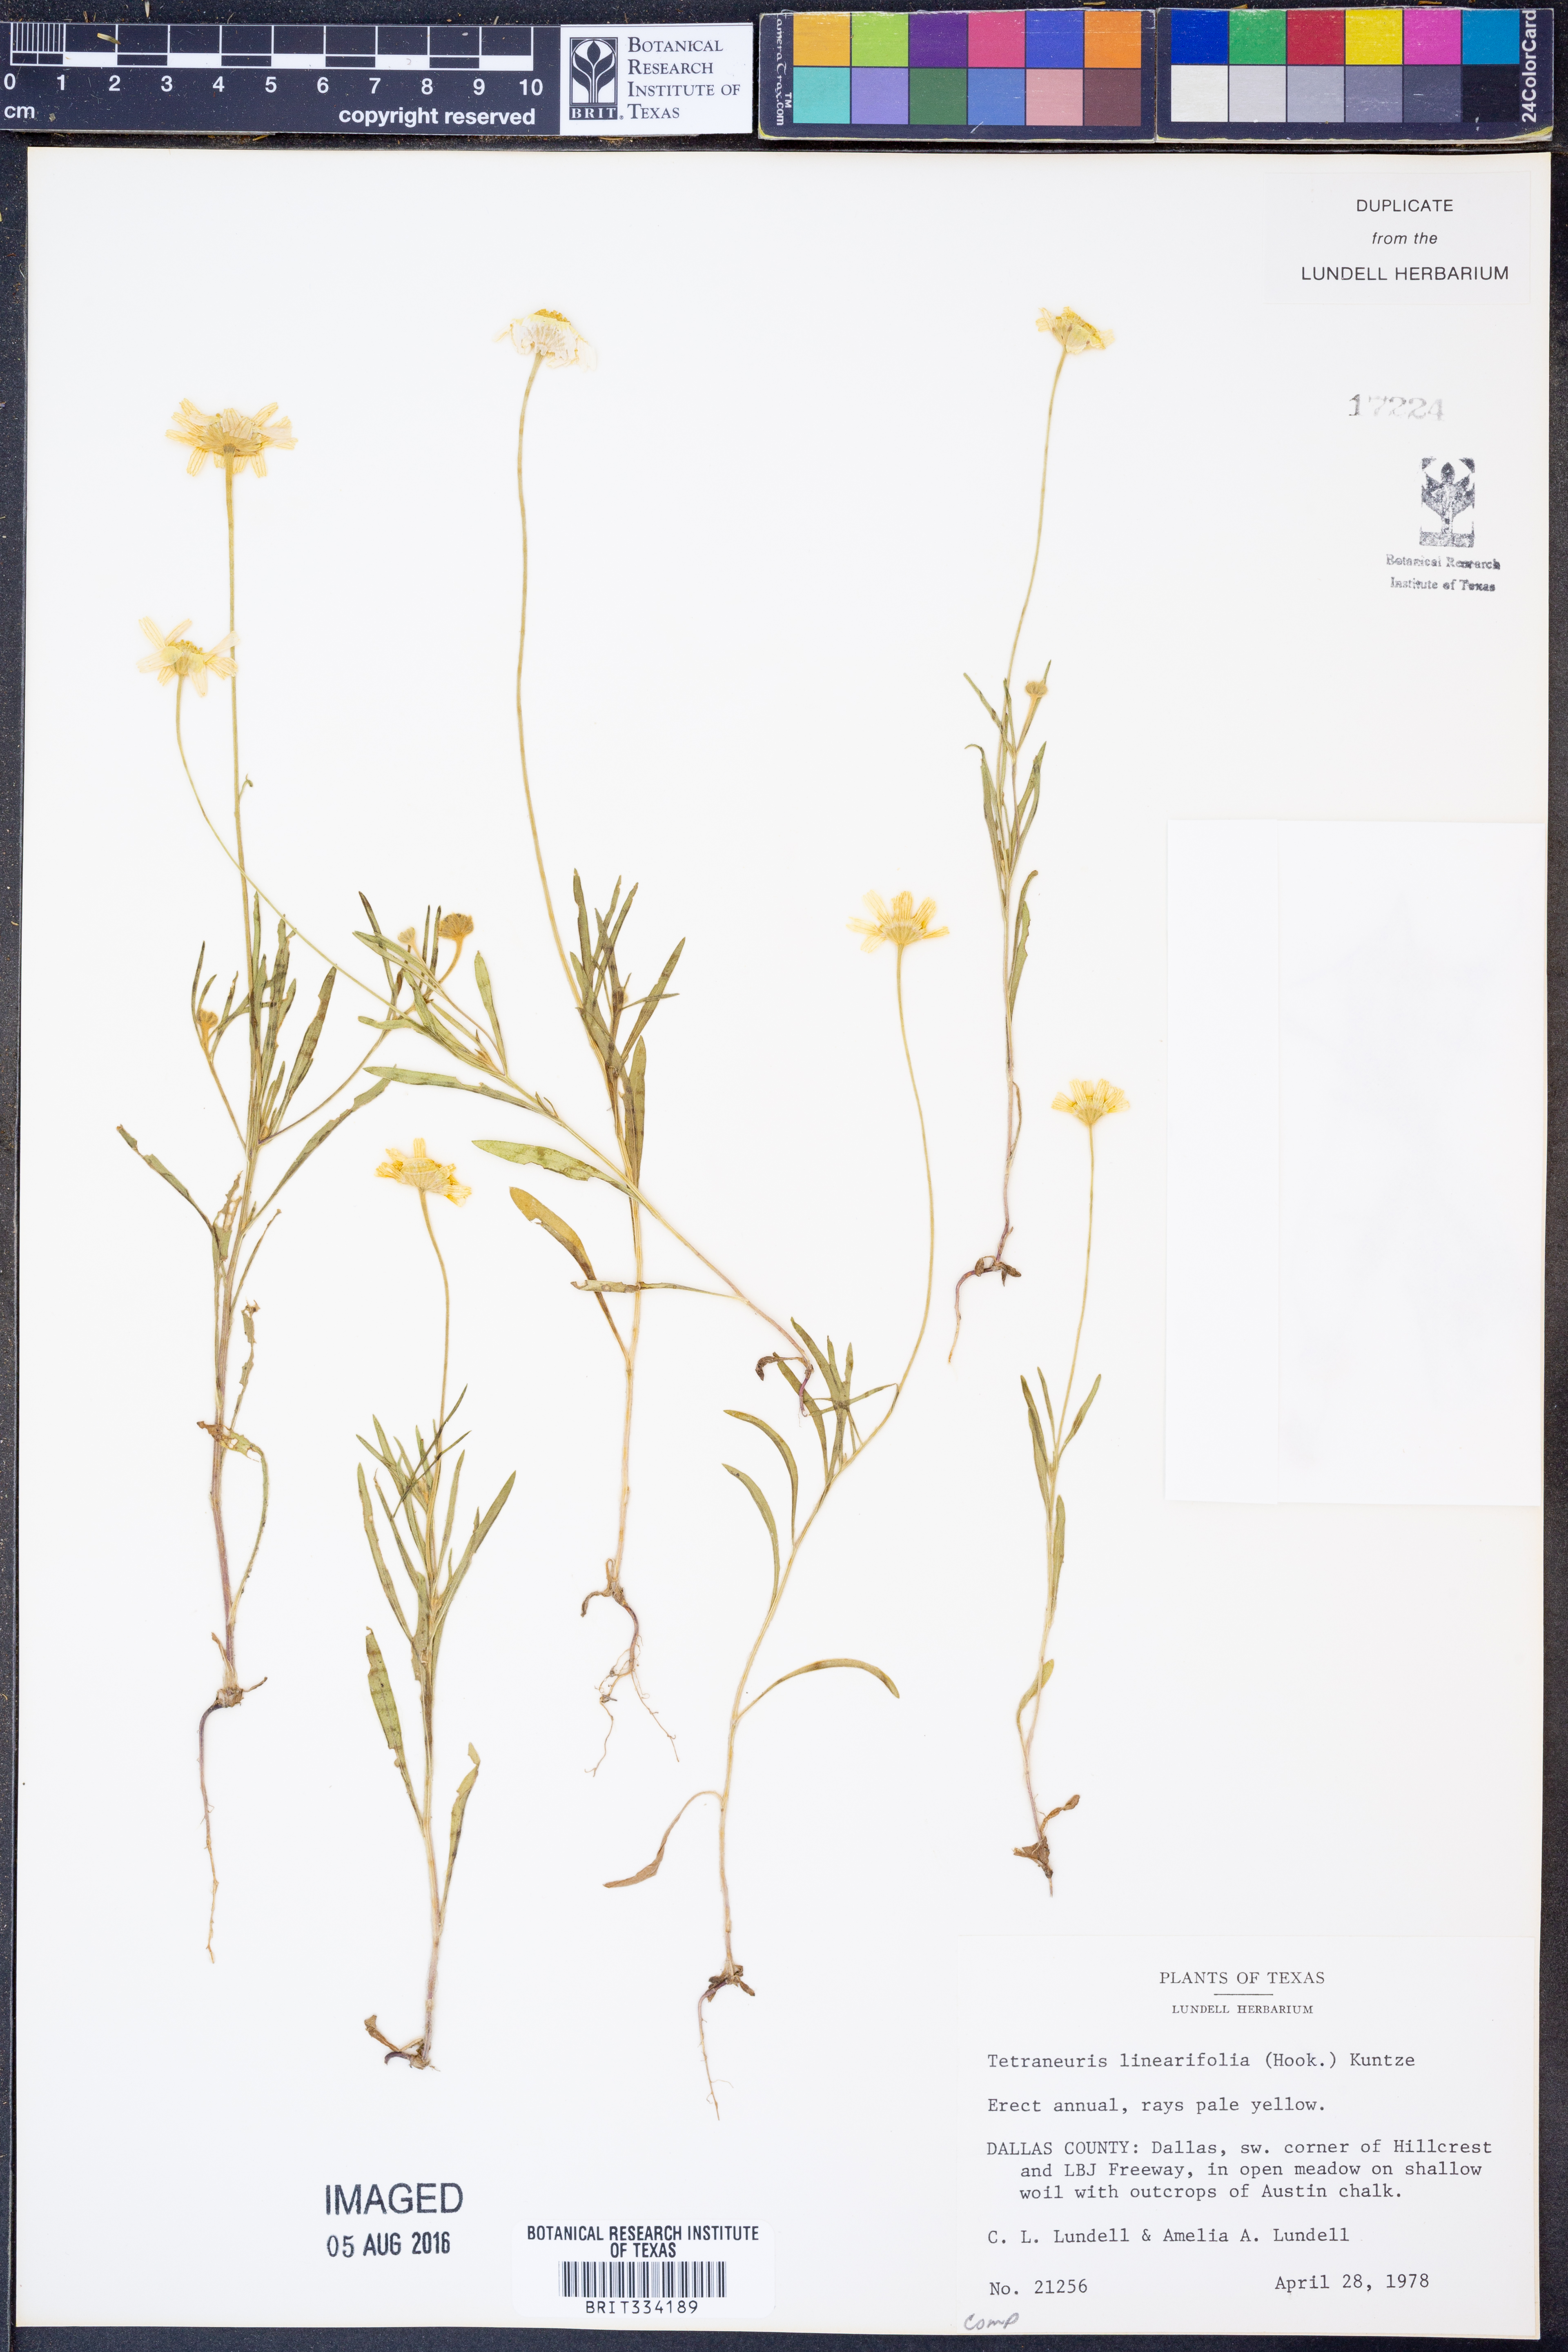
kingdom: Plantae
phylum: Tracheophyta
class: Magnoliopsida
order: Asterales
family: Asteraceae
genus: Tetraneuris
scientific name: Tetraneuris linearifolia
